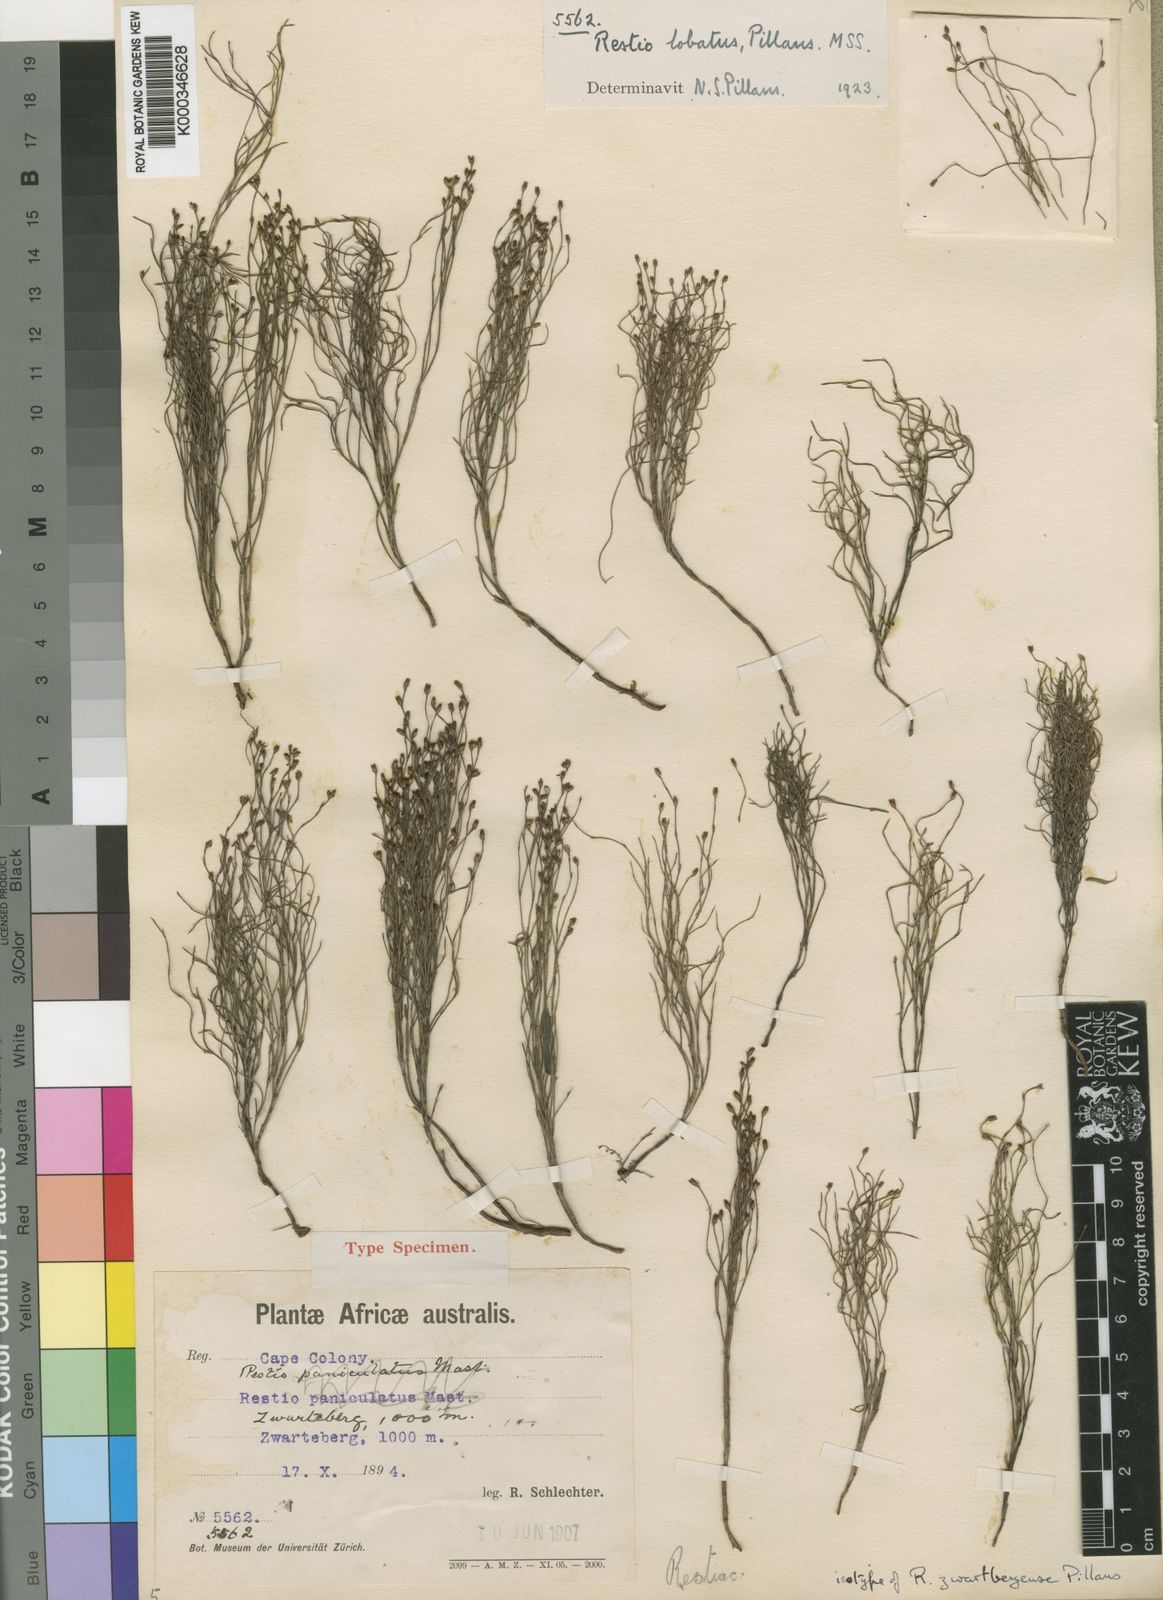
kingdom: Plantae
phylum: Tracheophyta
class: Liliopsida
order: Poales
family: Restionaceae
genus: Restio
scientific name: Restio
